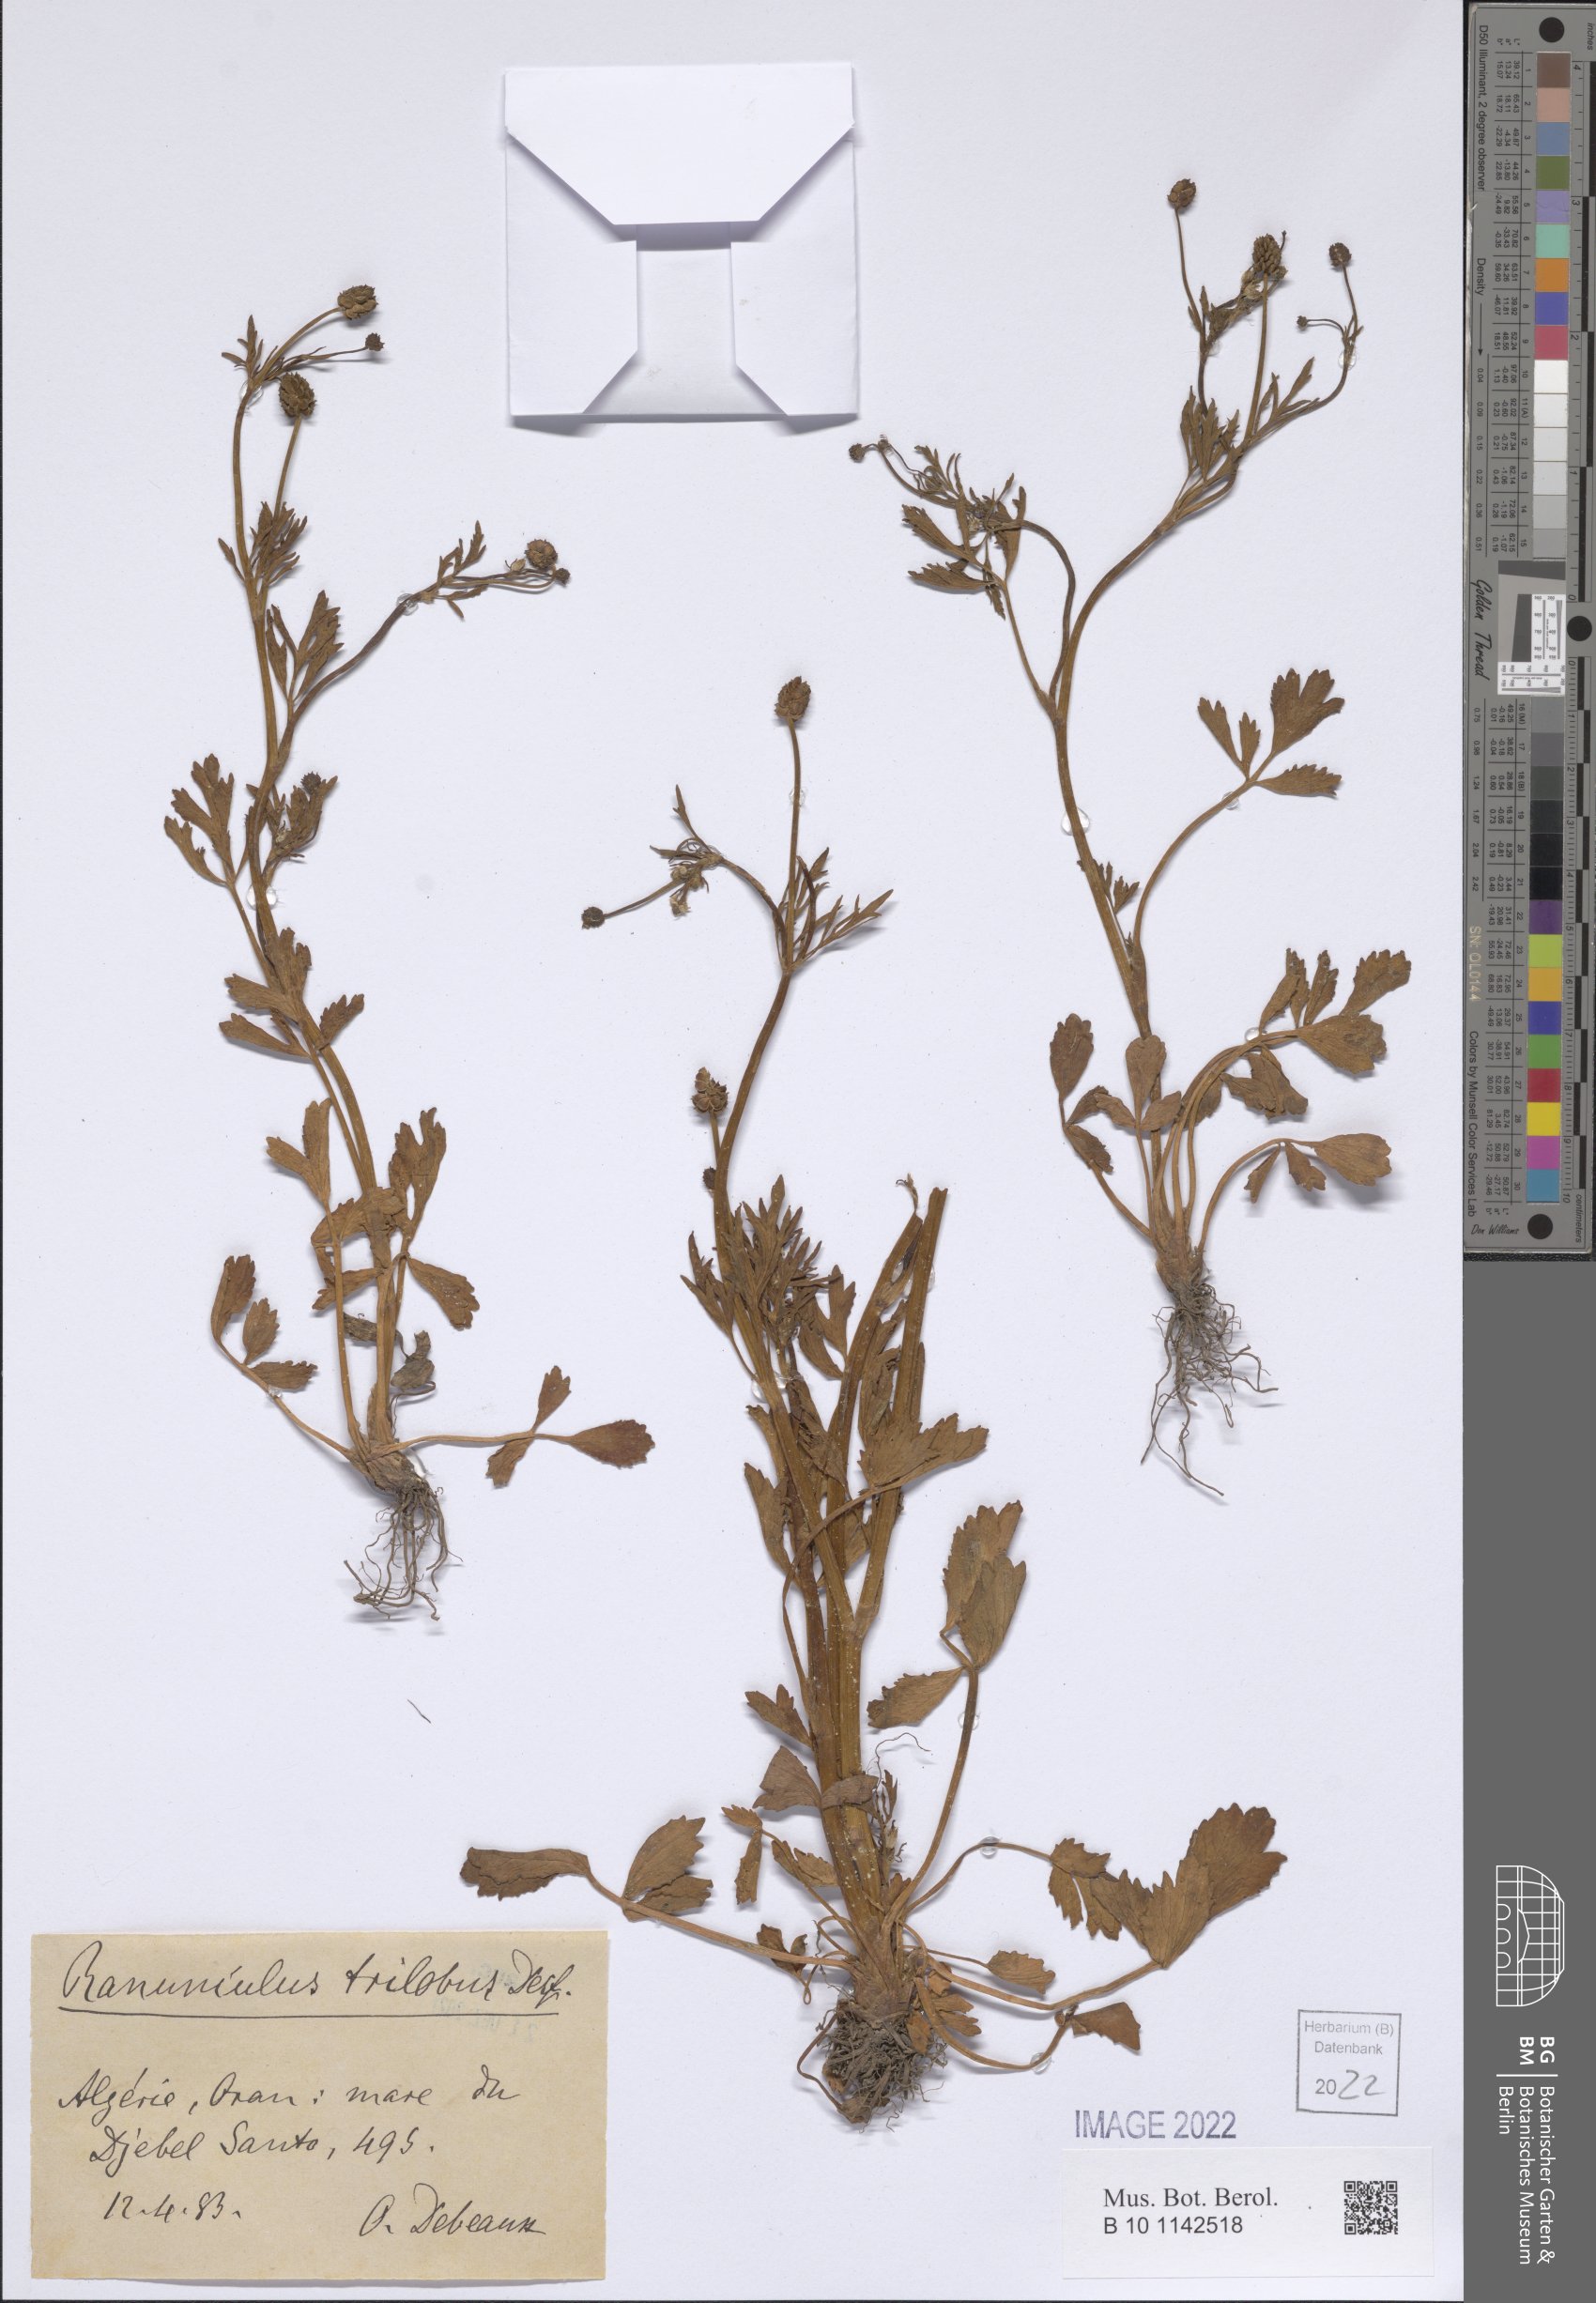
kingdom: Plantae
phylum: Tracheophyta
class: Magnoliopsida
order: Ranunculales
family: Ranunculaceae
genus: Ranunculus
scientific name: Ranunculus trilobus
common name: Threelobe buttercup
